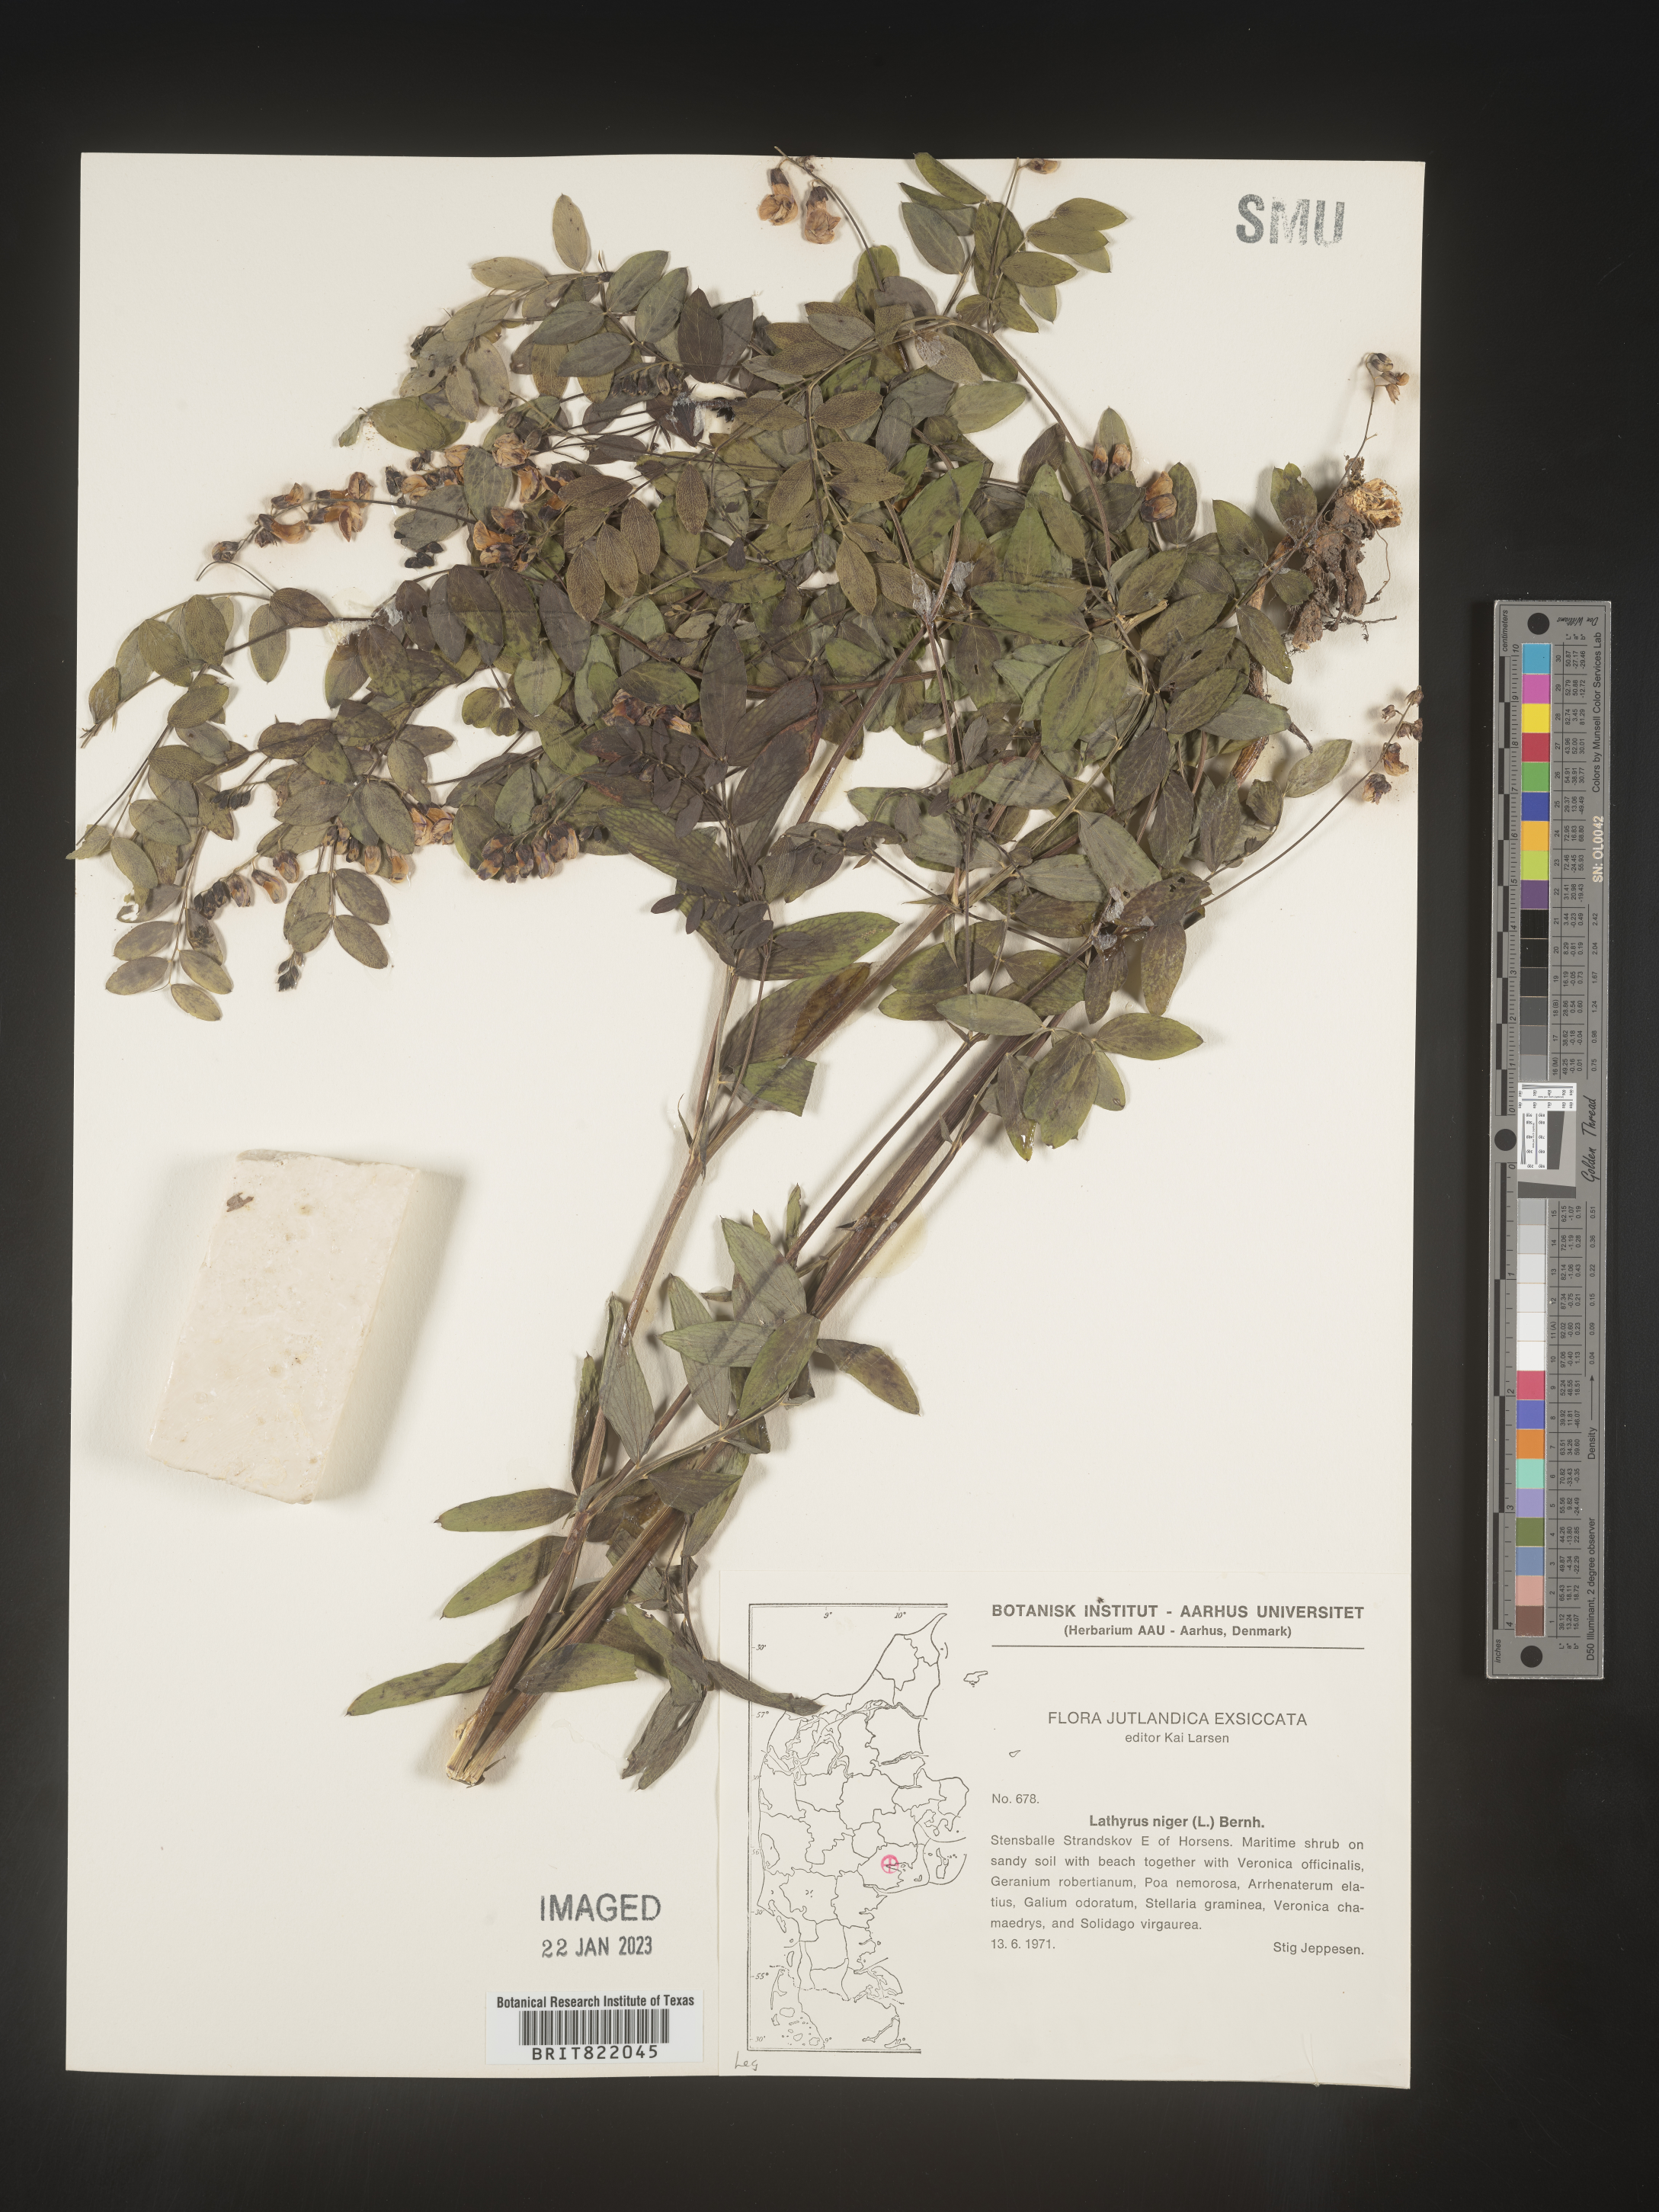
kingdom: Plantae
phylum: Tracheophyta
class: Magnoliopsida
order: Fabales
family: Fabaceae
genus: Lathyrus
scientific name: Lathyrus
